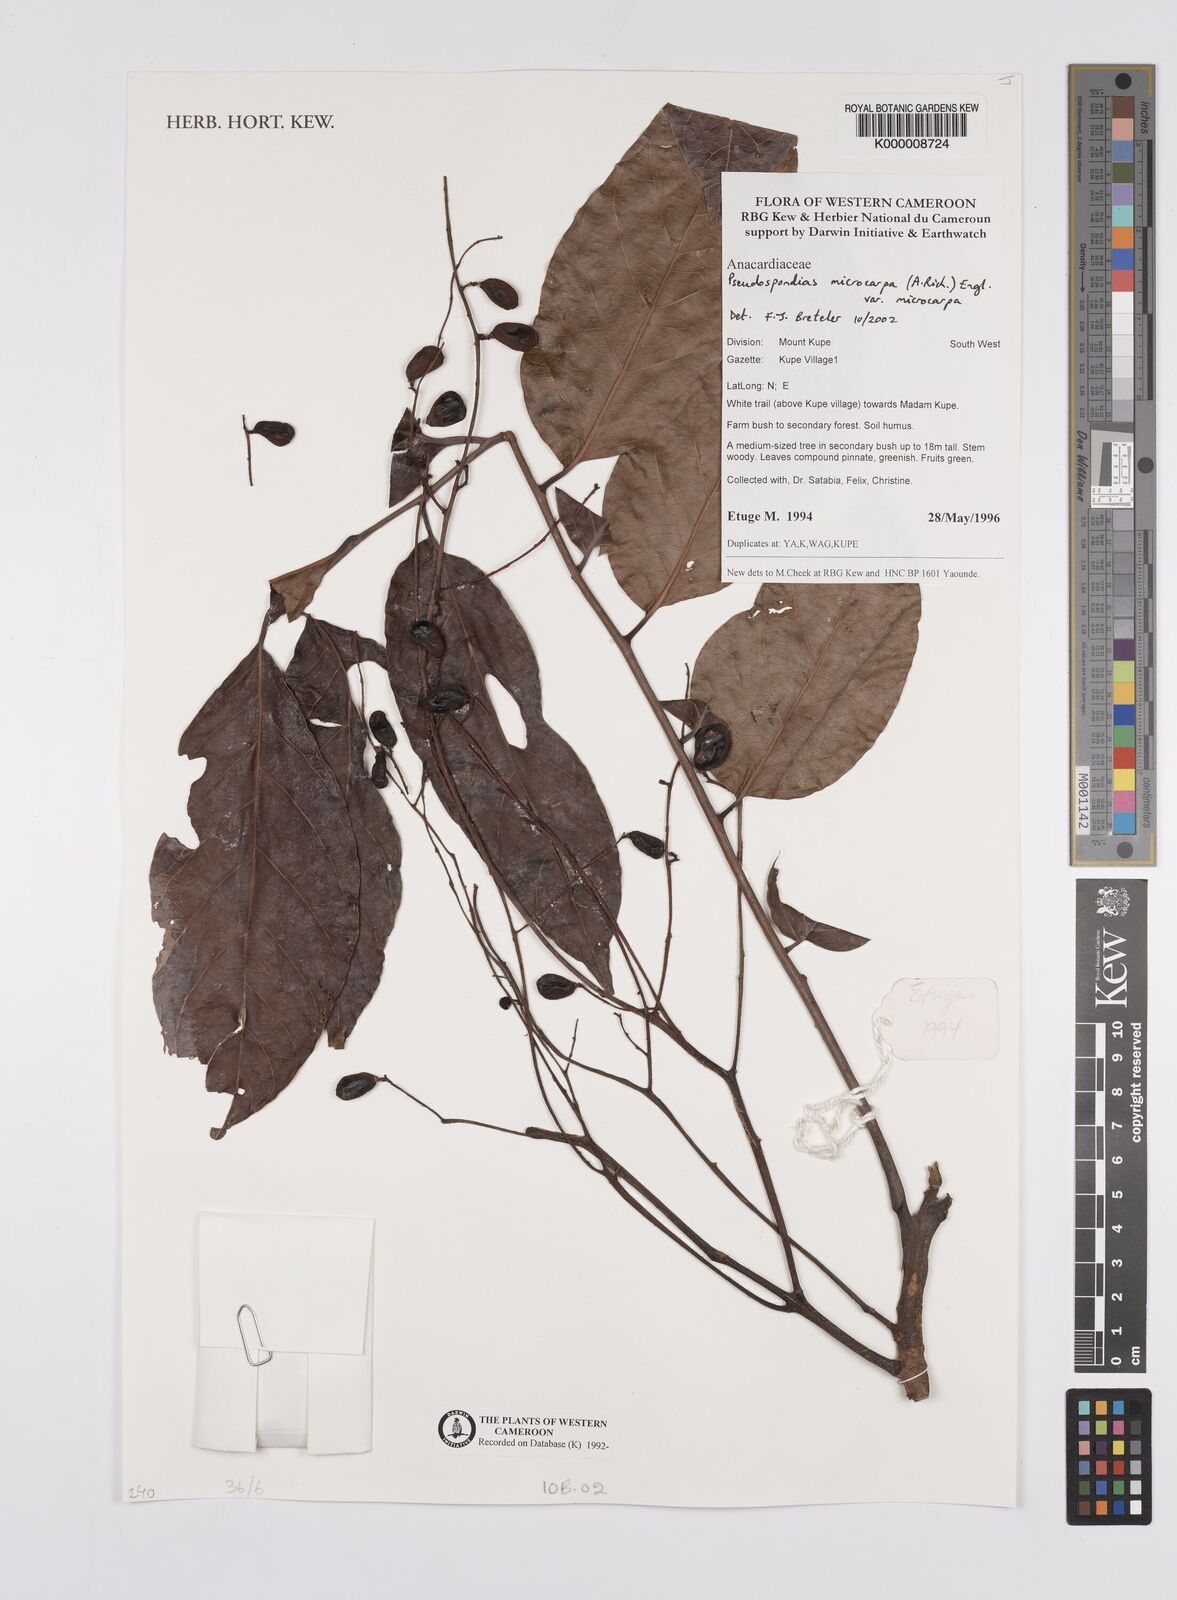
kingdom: Plantae
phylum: Tracheophyta
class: Magnoliopsida
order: Sapindales
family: Anacardiaceae
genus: Pseudospondias
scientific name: Pseudospondias microcarpa
